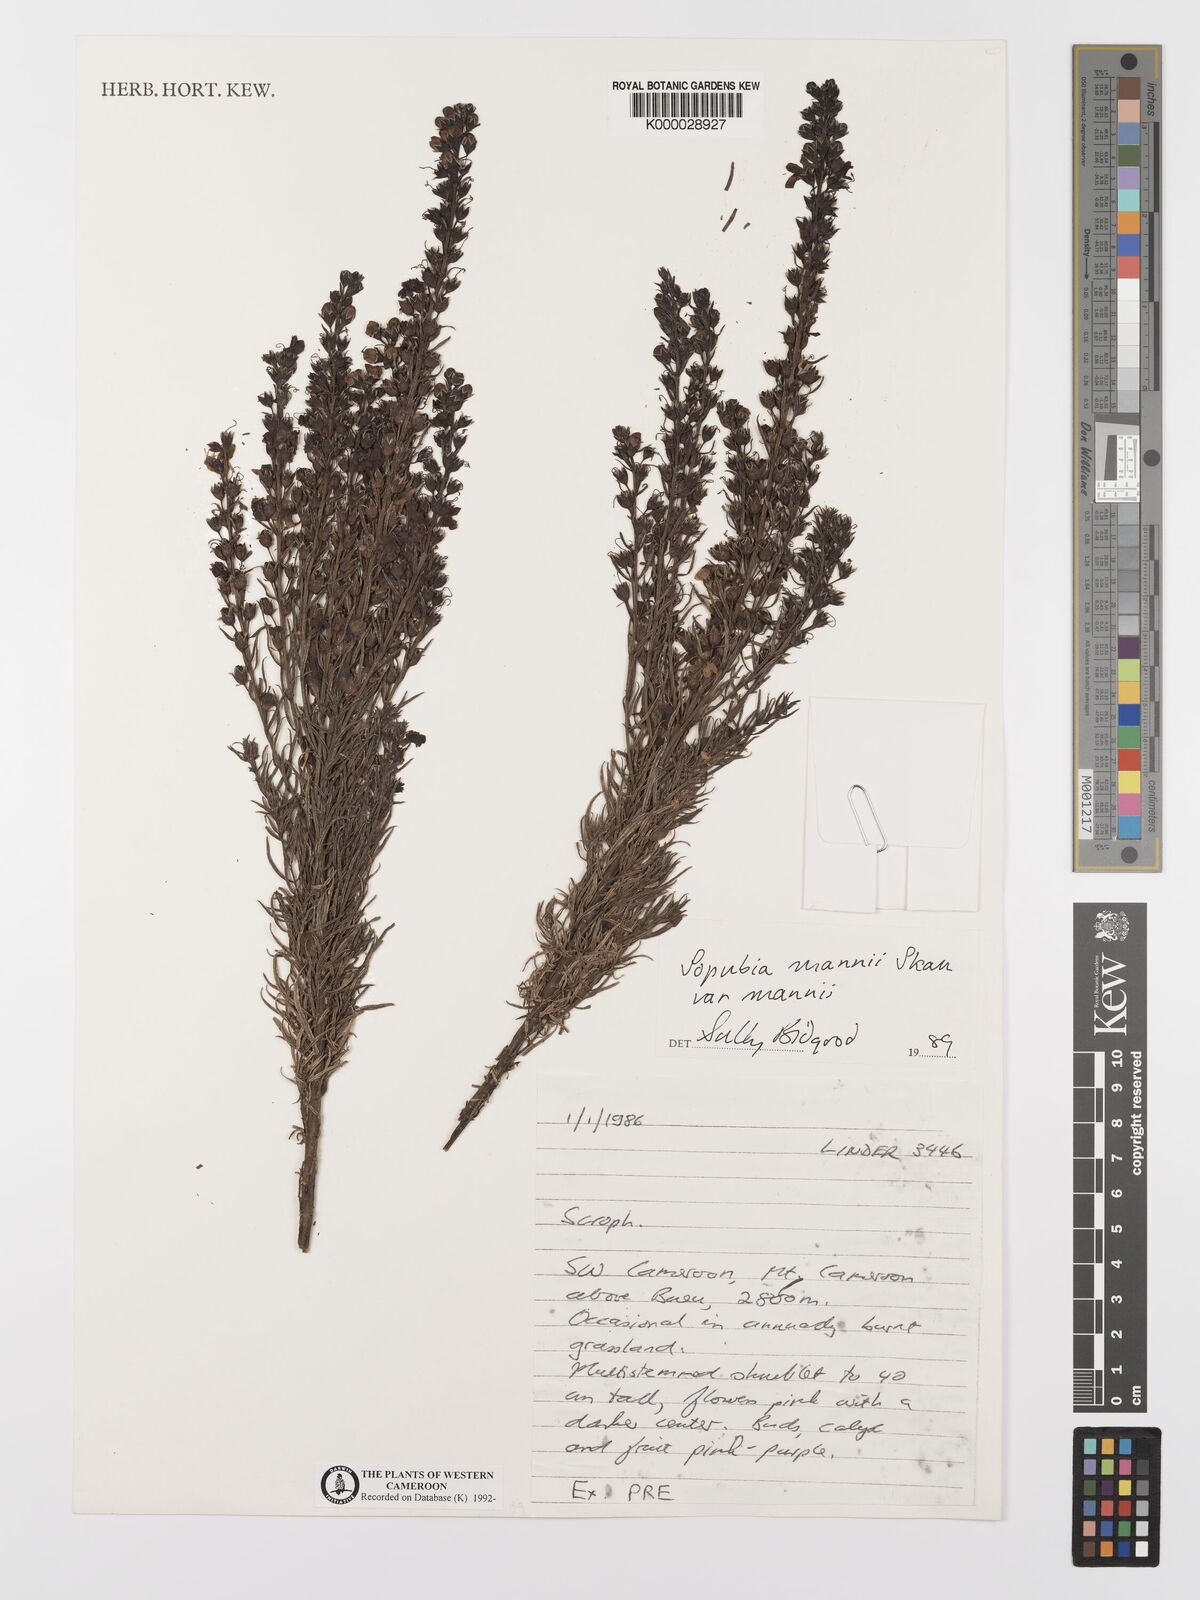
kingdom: Plantae
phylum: Tracheophyta
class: Magnoliopsida
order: Lamiales
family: Orobanchaceae
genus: Sopubia
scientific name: Sopubia mannii
